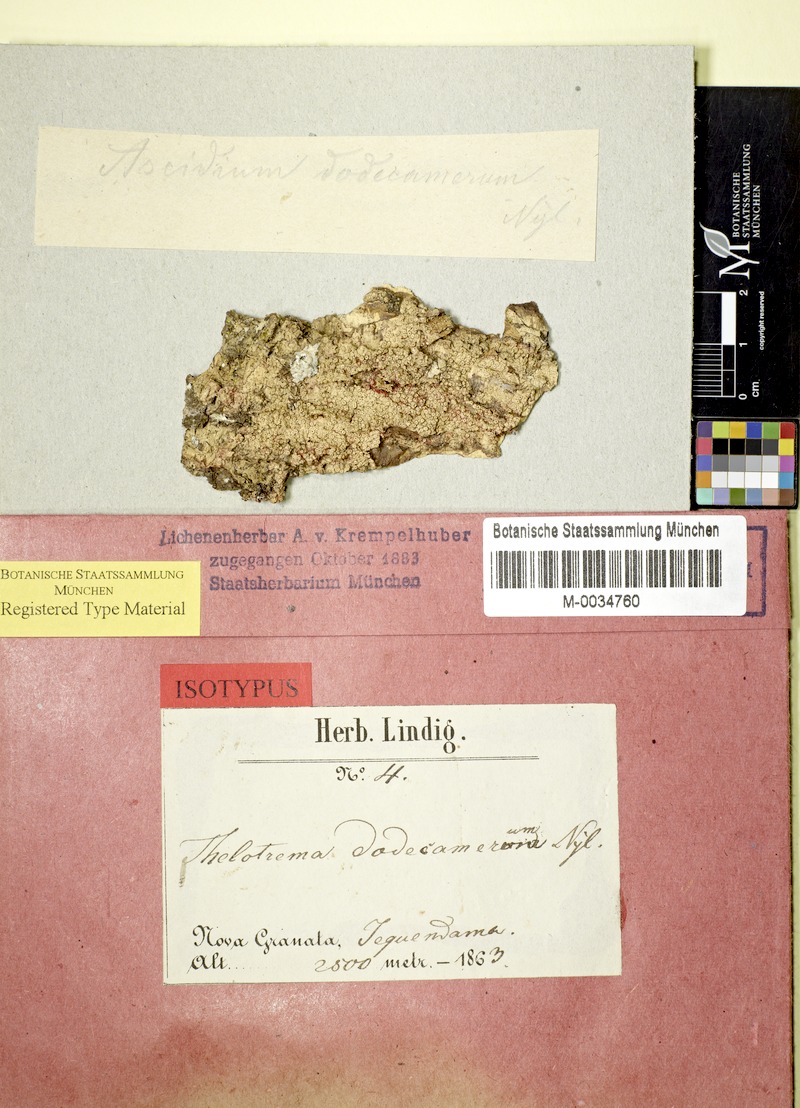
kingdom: Fungi
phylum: Ascomycota
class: Lecanoromycetes
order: Ostropales
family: Graphidaceae
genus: Ocellularia
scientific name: Ocellularia dodecamera
